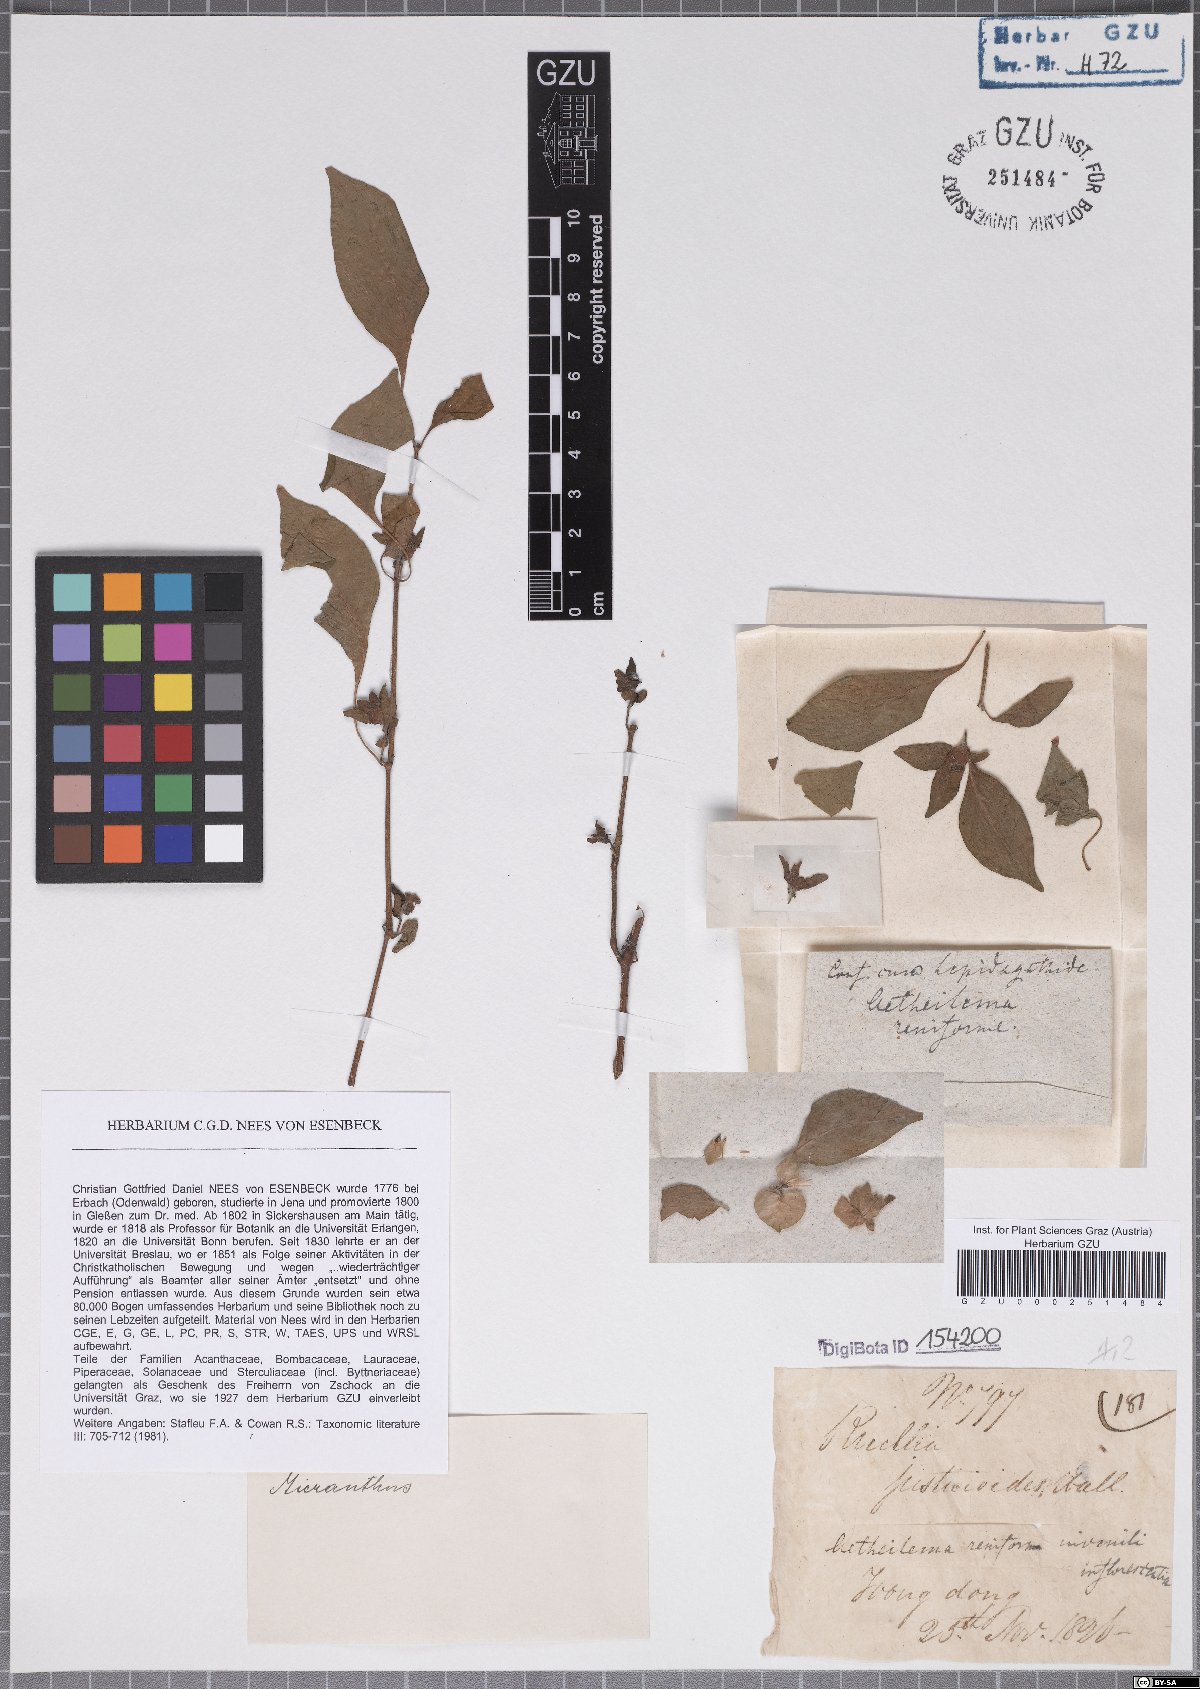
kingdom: Plantae
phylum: Tracheophyta
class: Magnoliopsida
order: Lamiales
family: Acanthaceae
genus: Phaulopsis
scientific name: Phaulopsis dorsiflora
